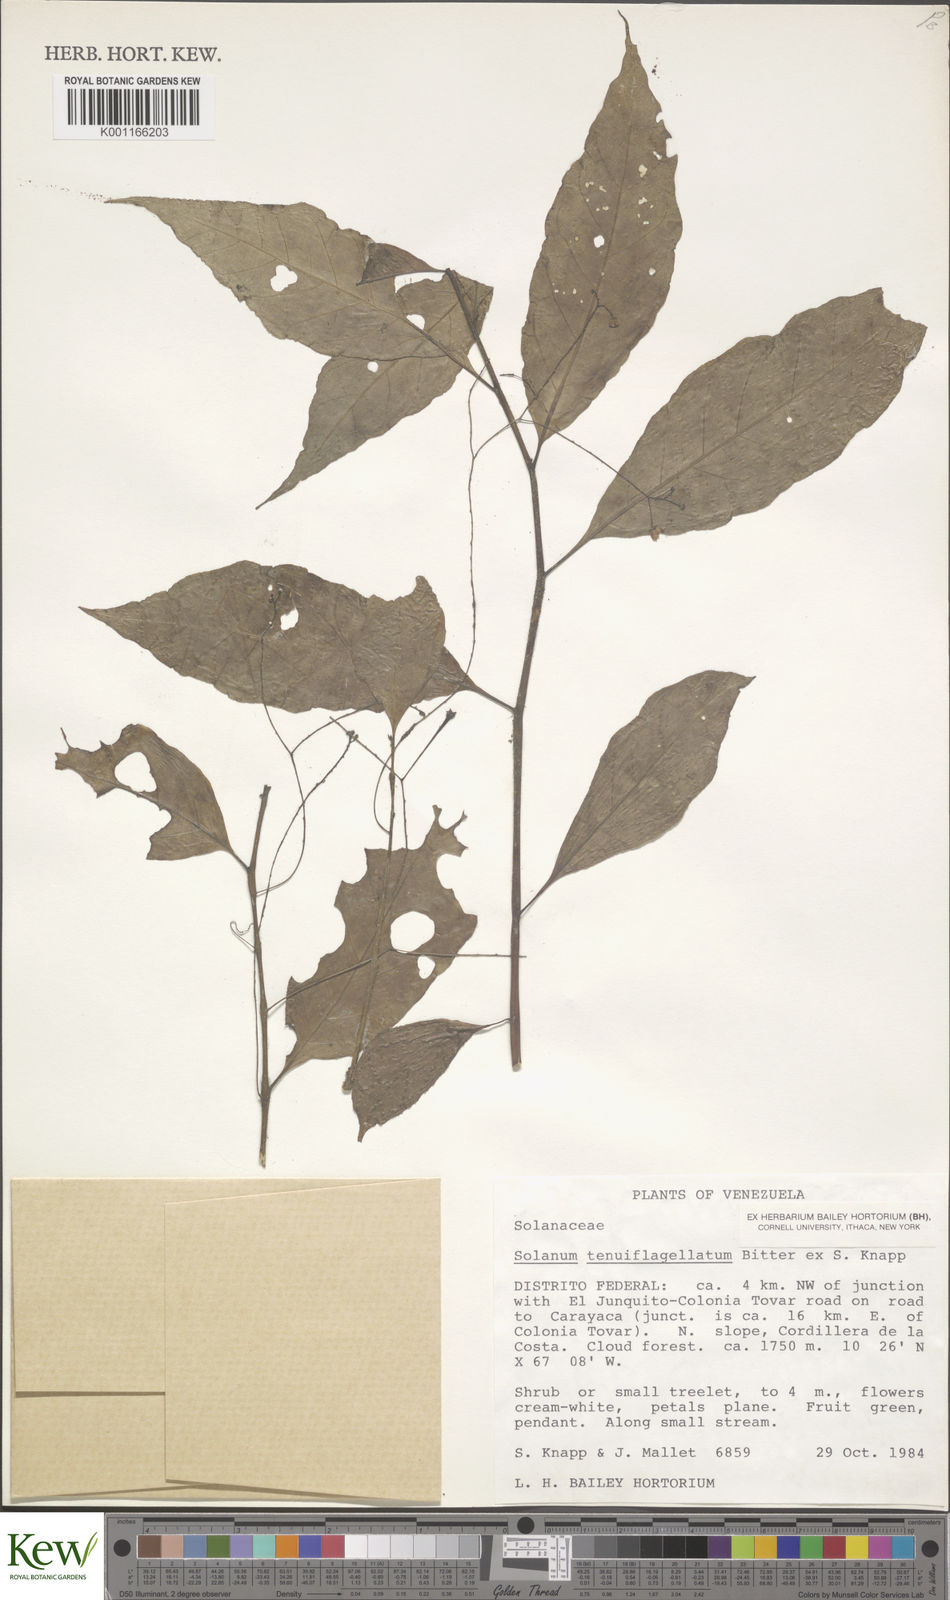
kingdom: Plantae
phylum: Tracheophyta
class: Magnoliopsida
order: Solanales
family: Solanaceae
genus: Solanum
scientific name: Solanum tenuiflagellatum
